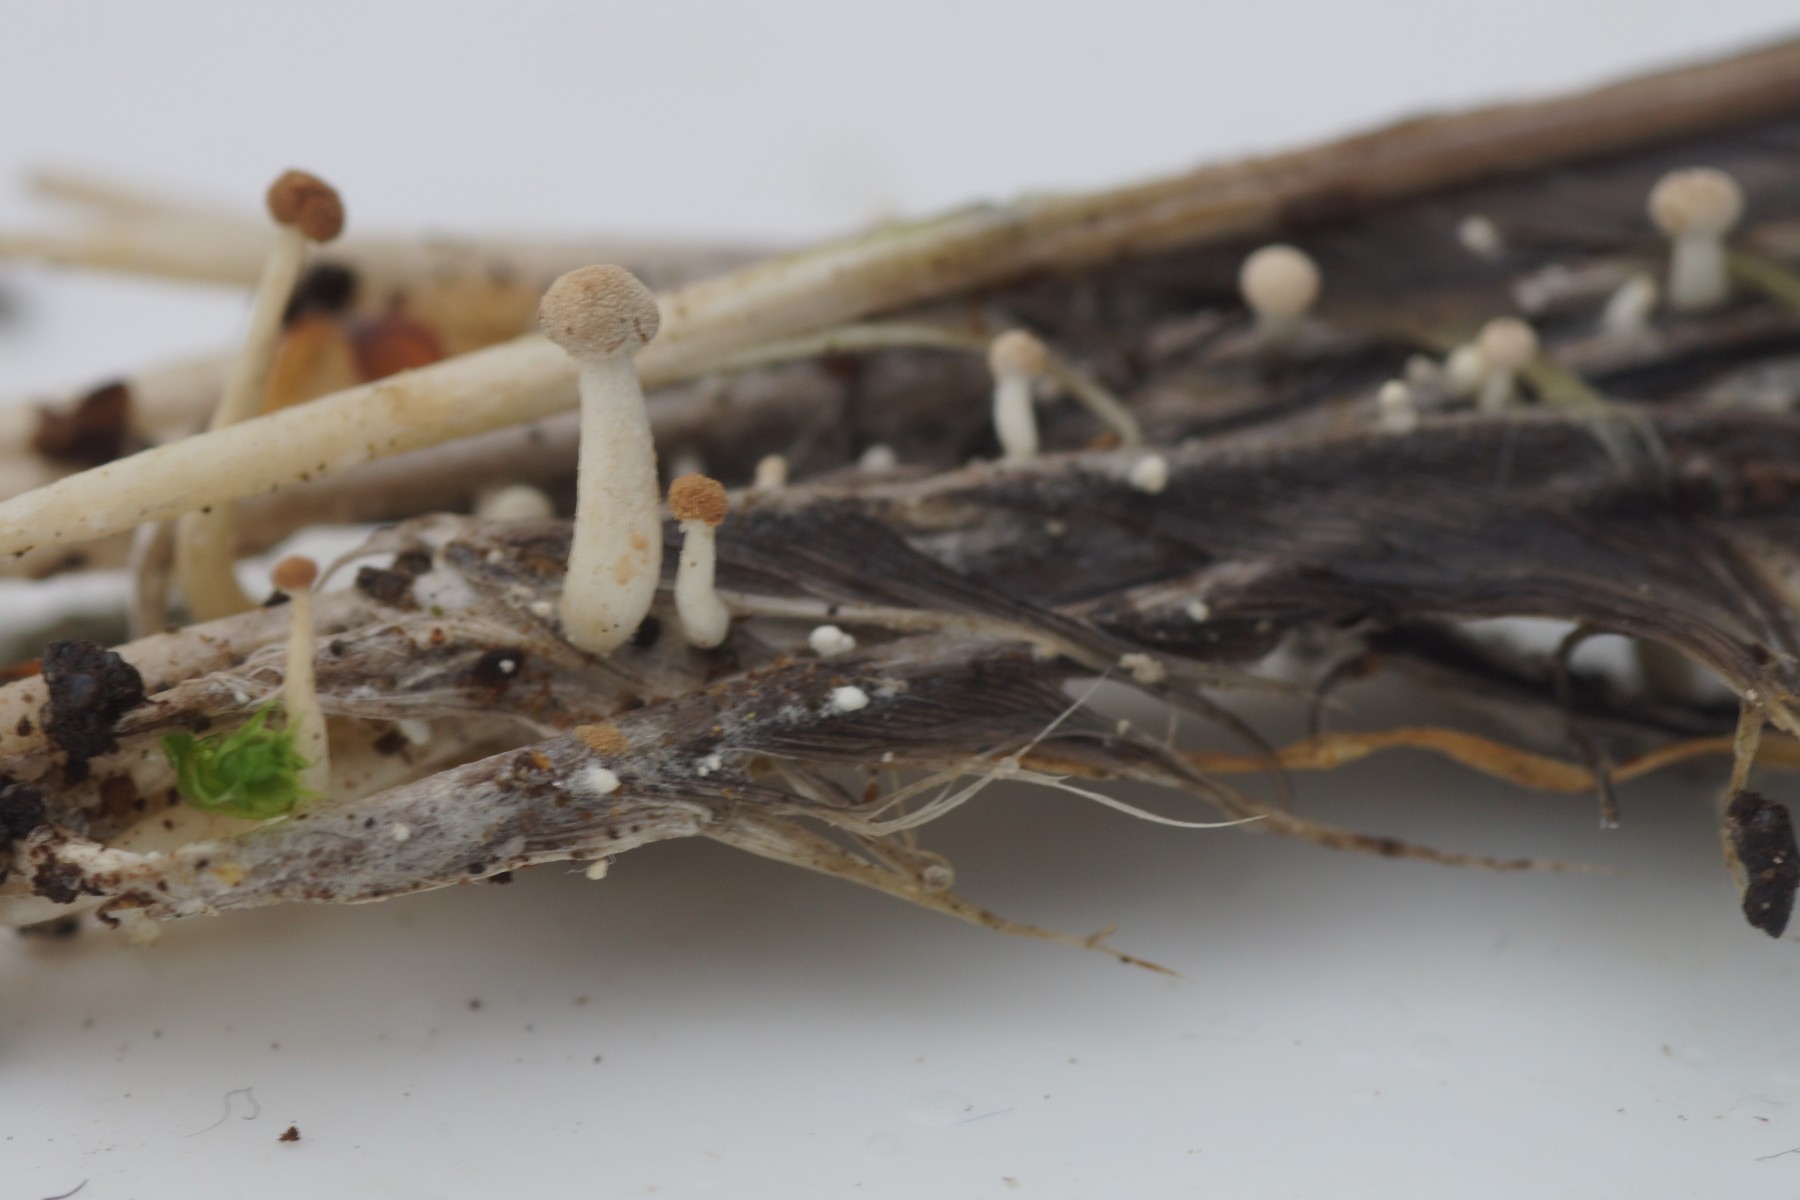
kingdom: Fungi
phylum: Ascomycota
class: Eurotiomycetes
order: Onygenales
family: Onygenaceae
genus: Onygena
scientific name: Onygena corvina
